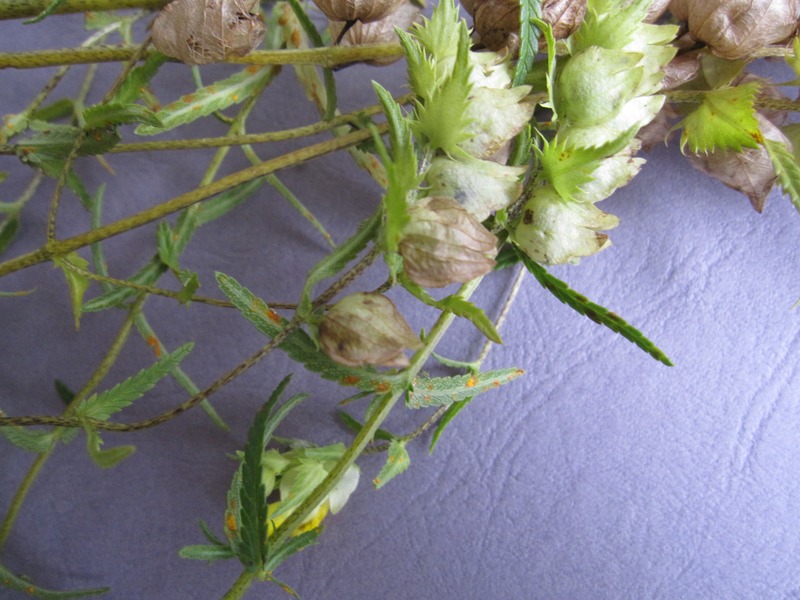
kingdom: Fungi
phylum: Basidiomycota
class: Pucciniomycetes
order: Pucciniales
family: Coleosporiaceae
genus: Coleosporium
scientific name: Coleosporium tussilaginis
